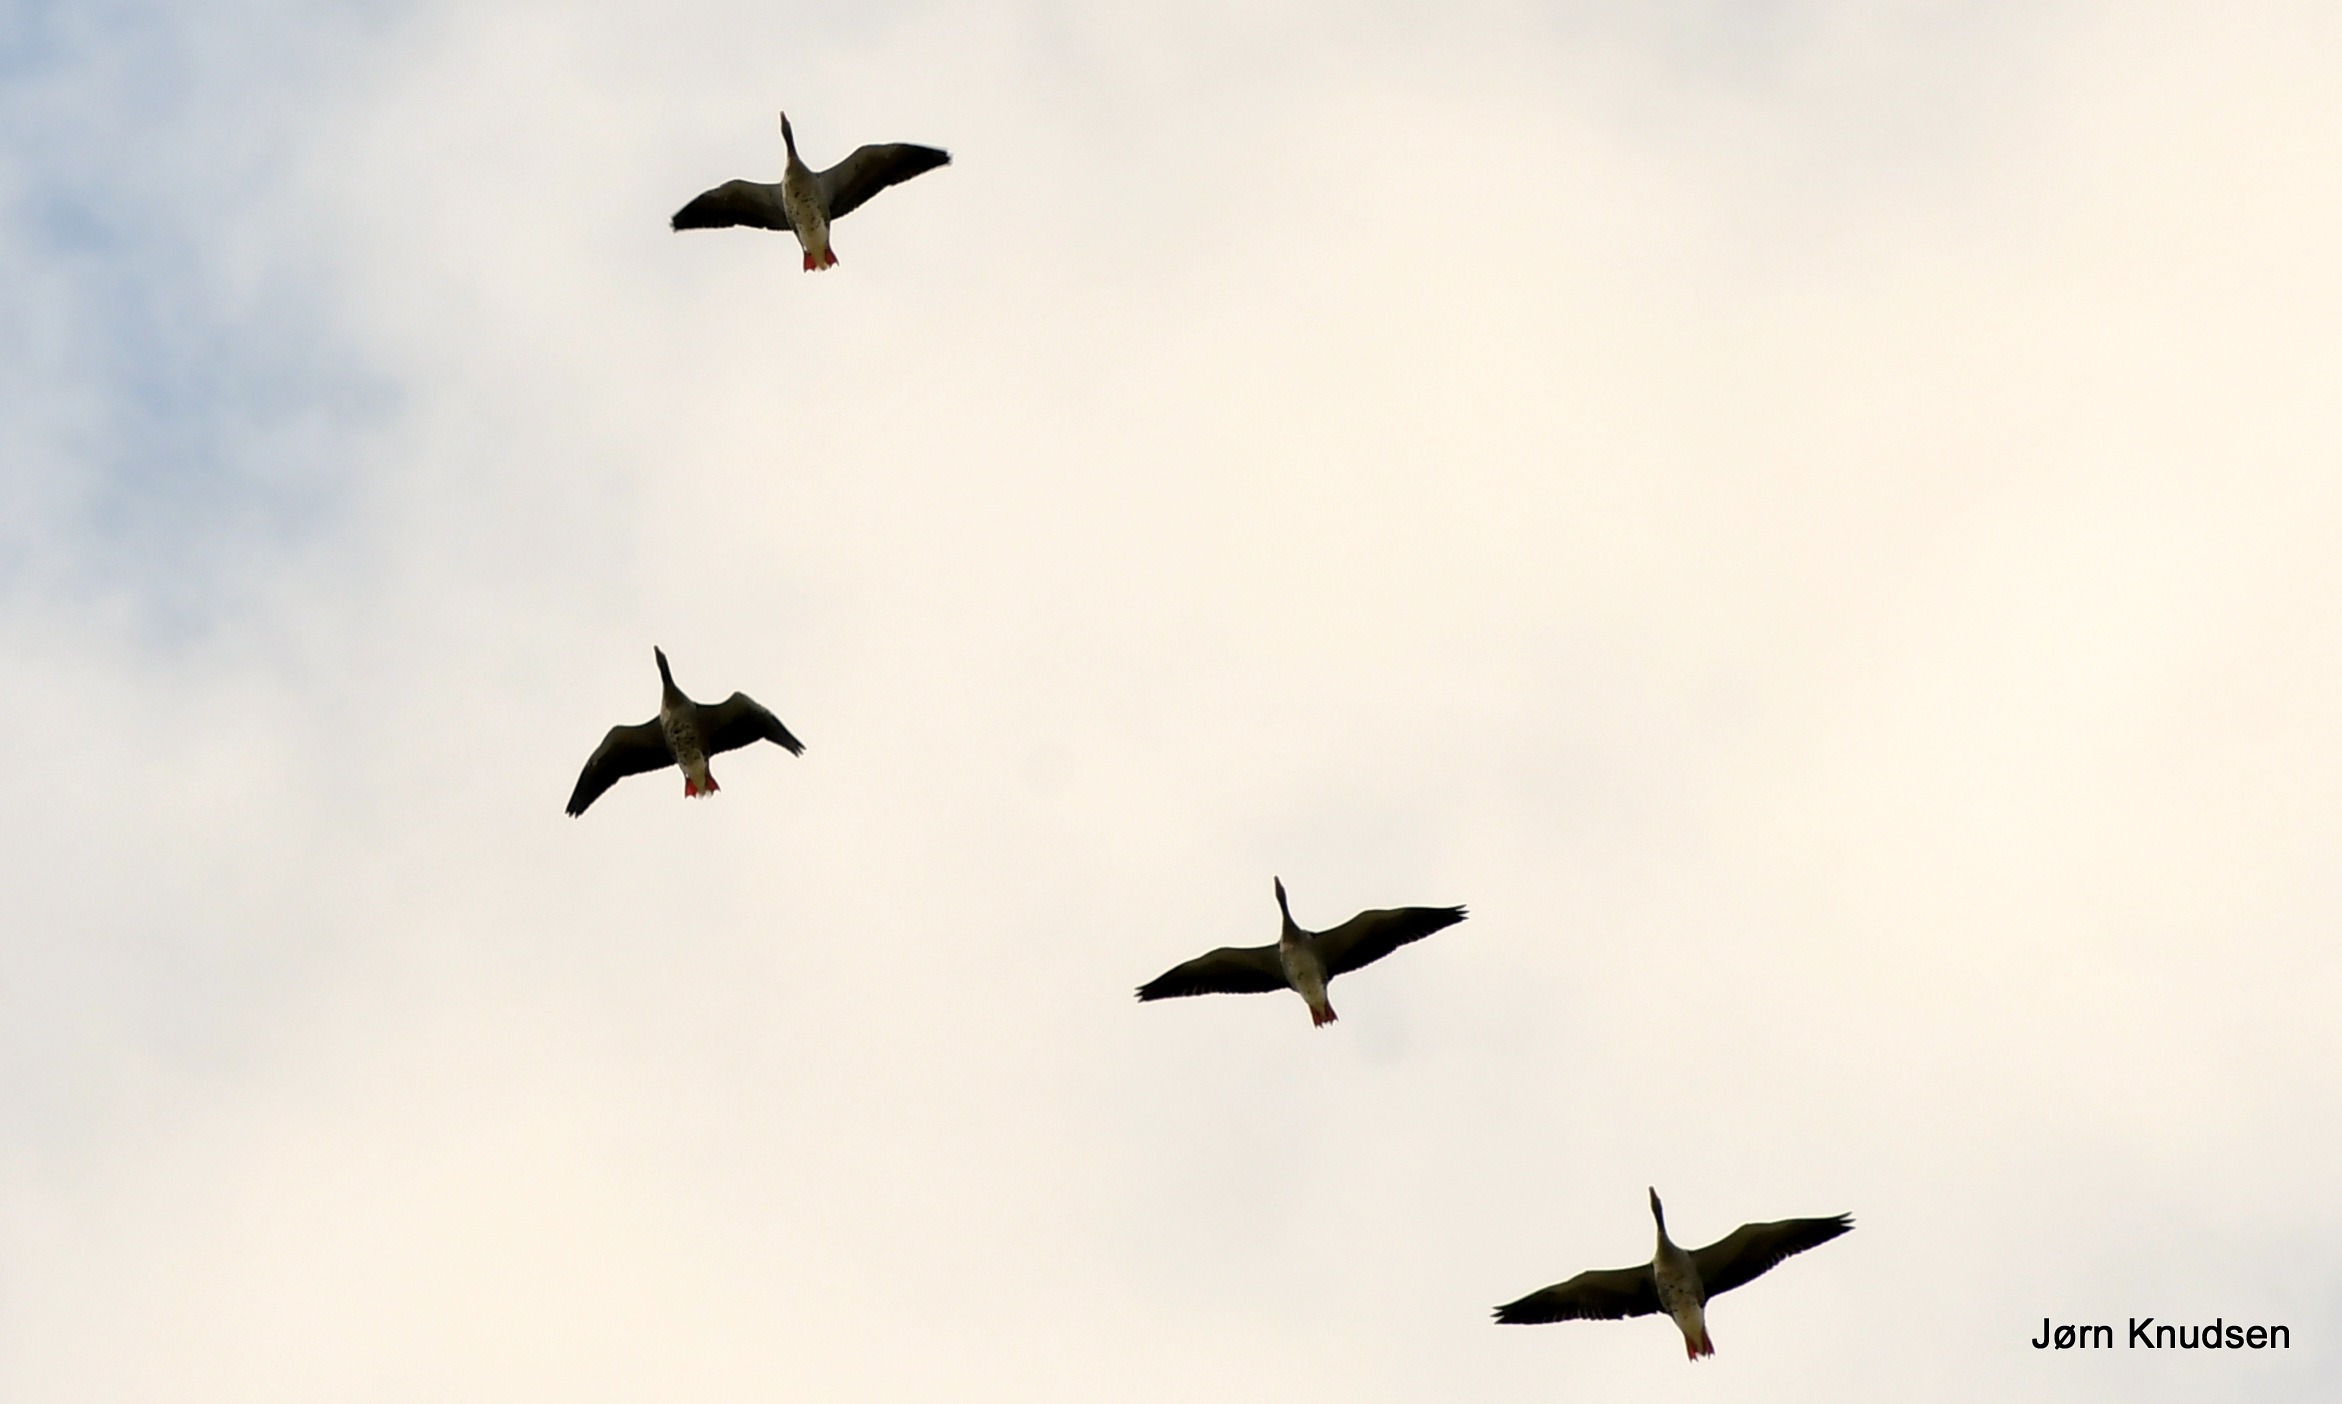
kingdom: Animalia
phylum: Chordata
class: Aves
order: Anseriformes
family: Anatidae
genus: Anser
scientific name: Anser anser
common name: Grågås
